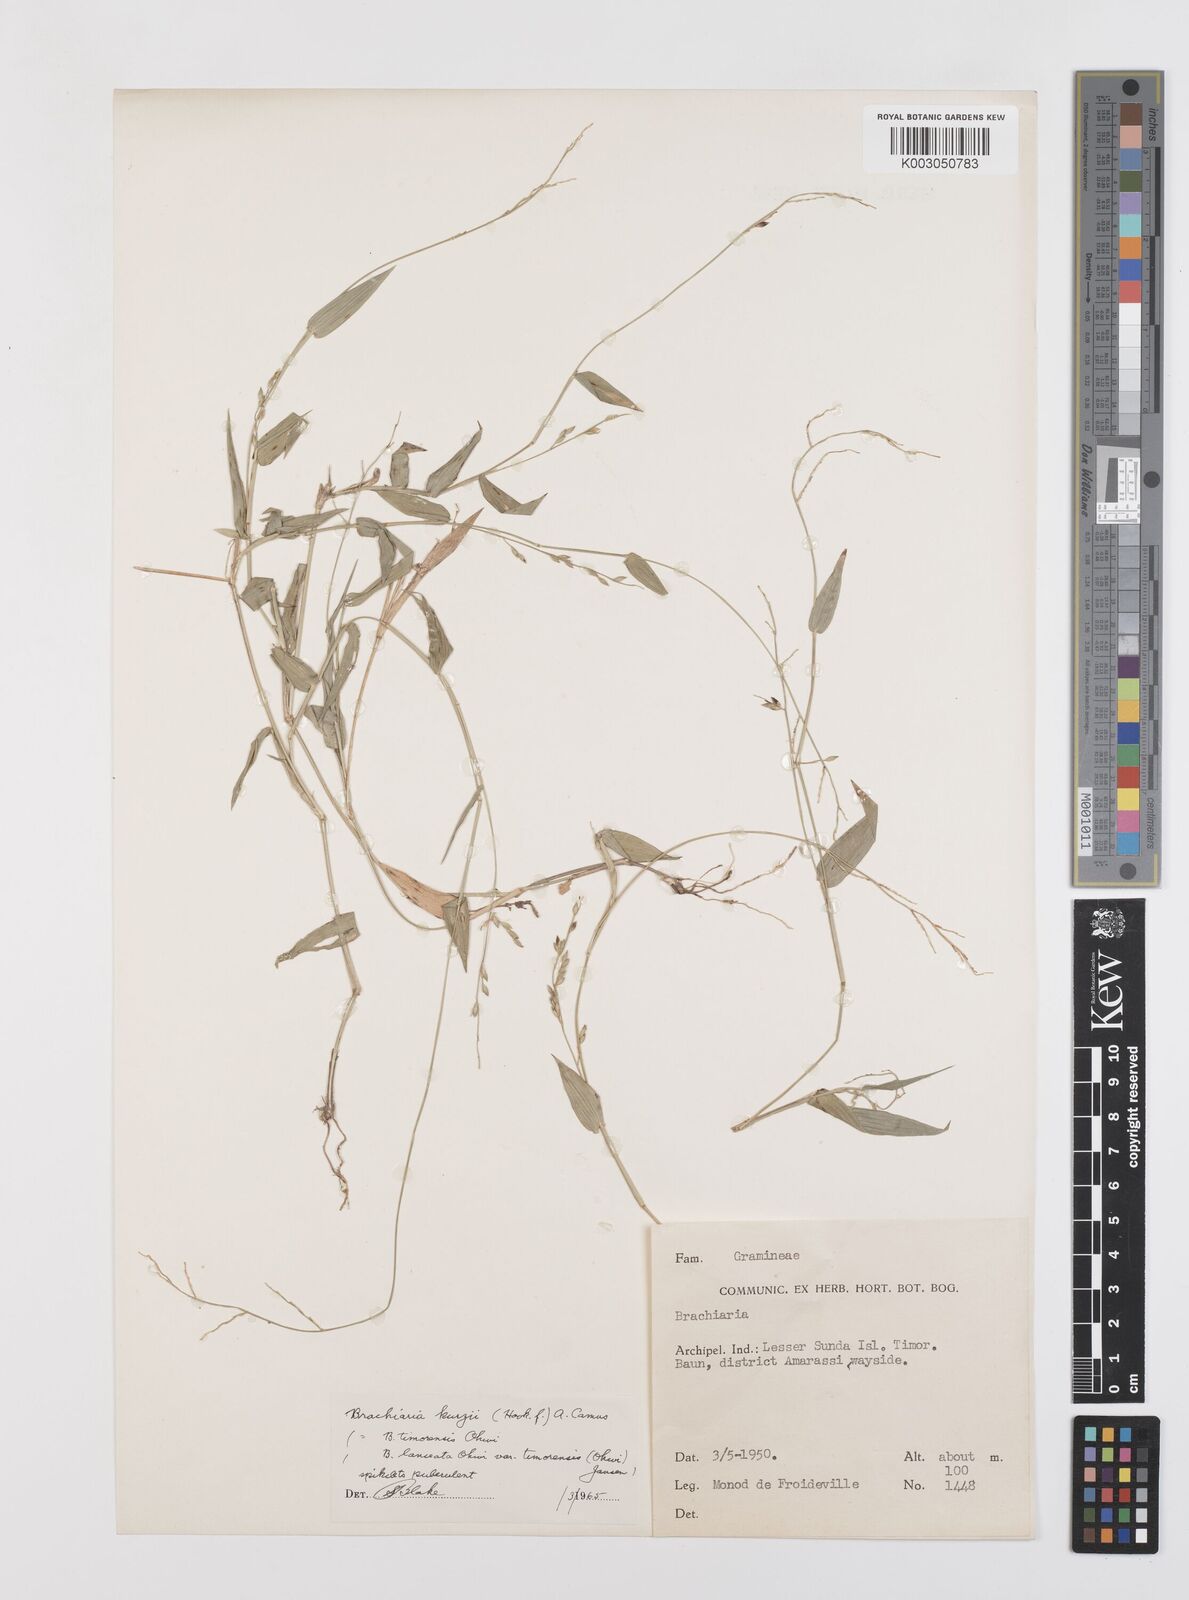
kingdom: Plantae
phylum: Tracheophyta
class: Liliopsida
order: Poales
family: Poaceae
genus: Urochloa
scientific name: Urochloa kurzii
